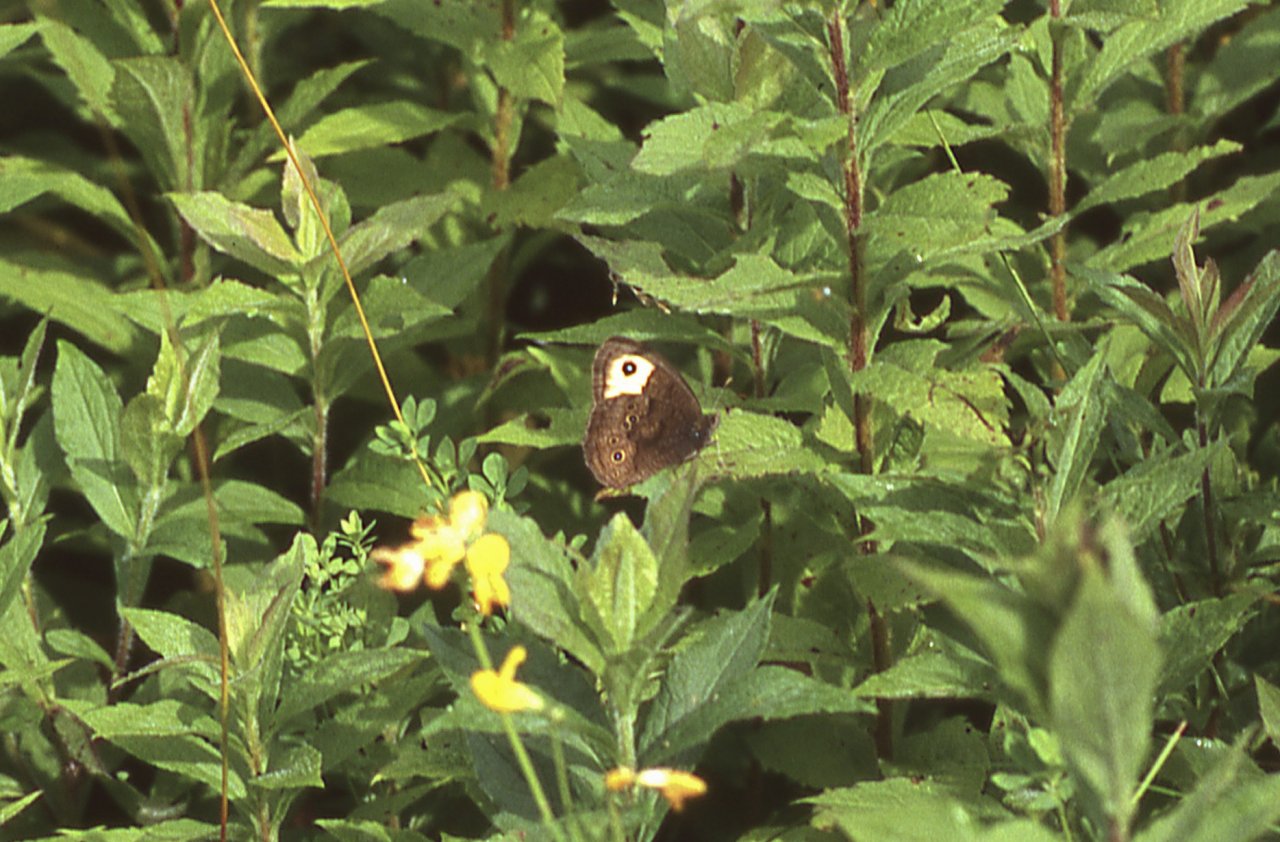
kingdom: Animalia
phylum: Arthropoda
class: Insecta
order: Lepidoptera
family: Nymphalidae
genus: Cercyonis
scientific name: Cercyonis pegala
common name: Common Wood-Nymph
